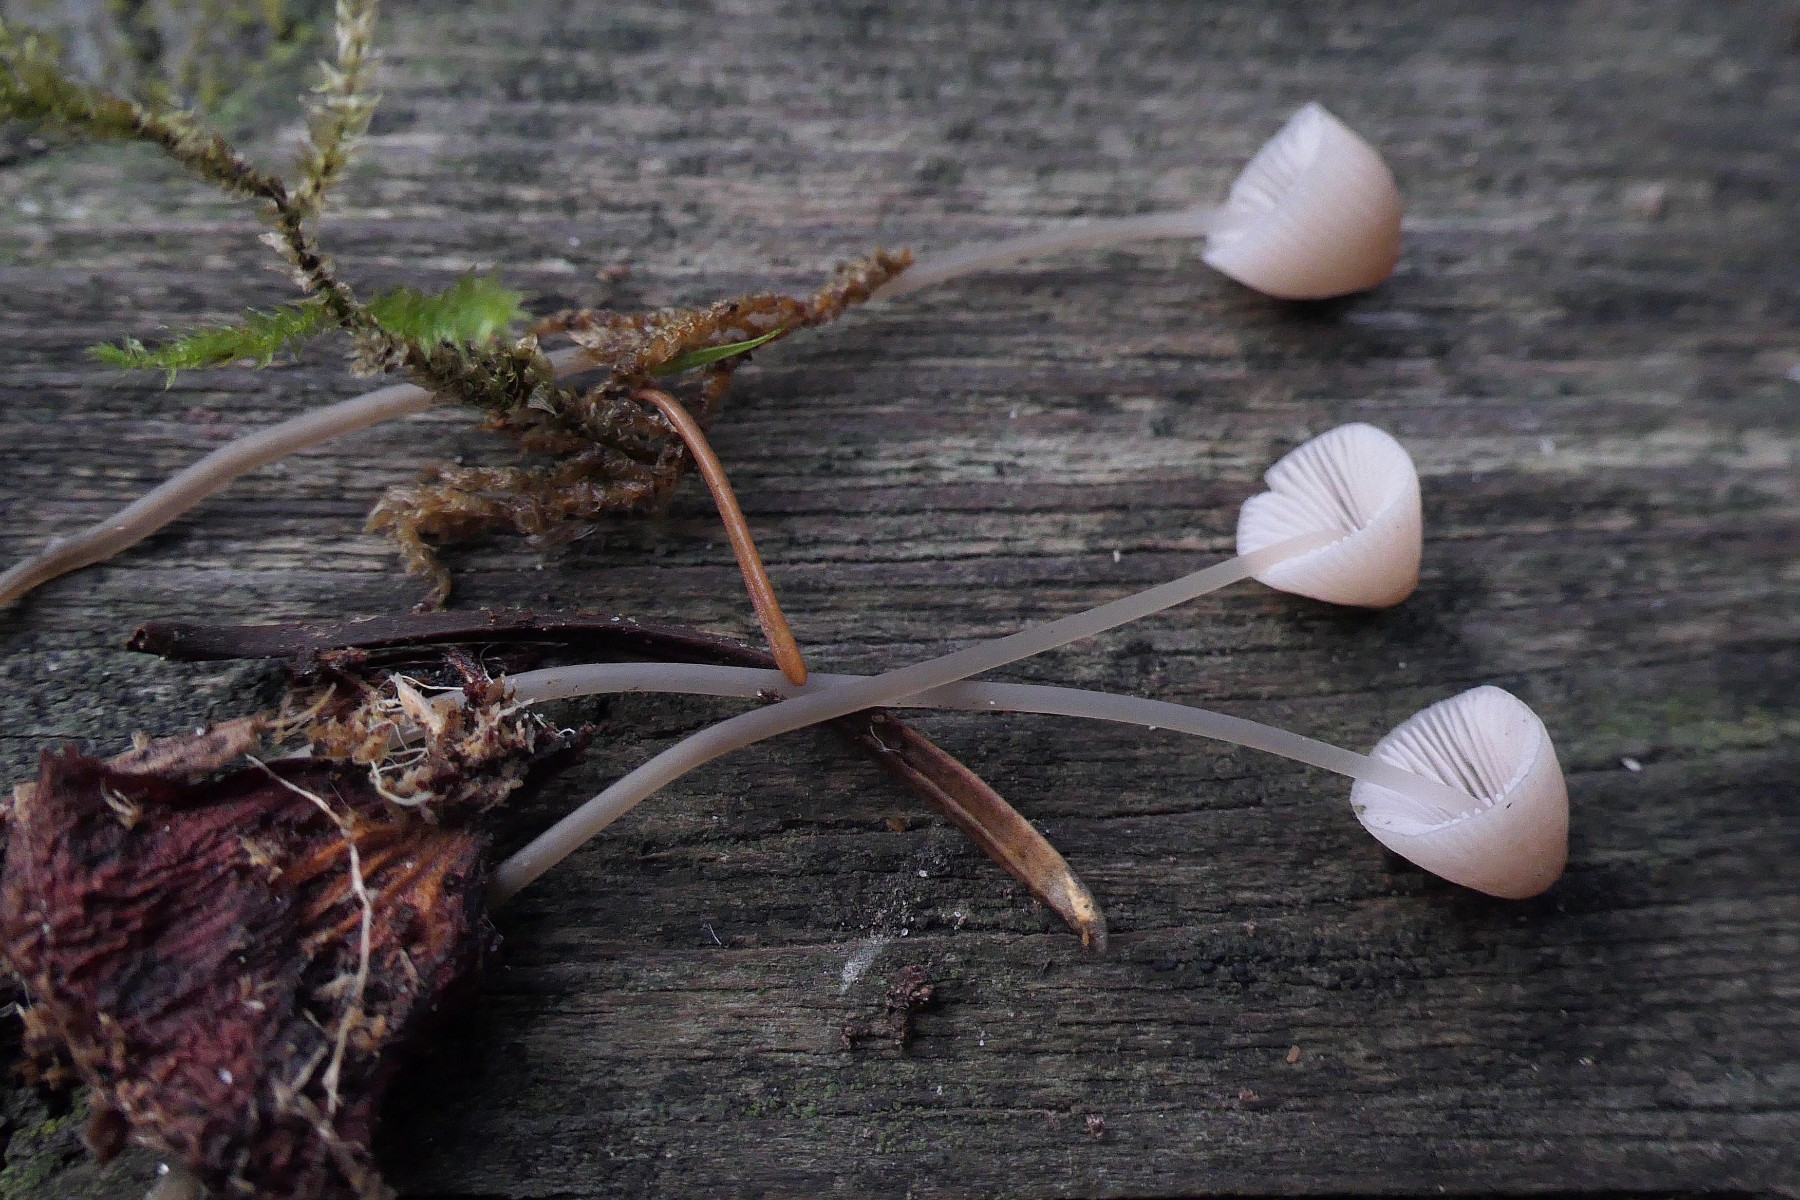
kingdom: Fungi
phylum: Basidiomycota
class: Agaricomycetes
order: Agaricales
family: Mycenaceae
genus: Mycena
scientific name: Mycena metata
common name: rødlig huesvamp
